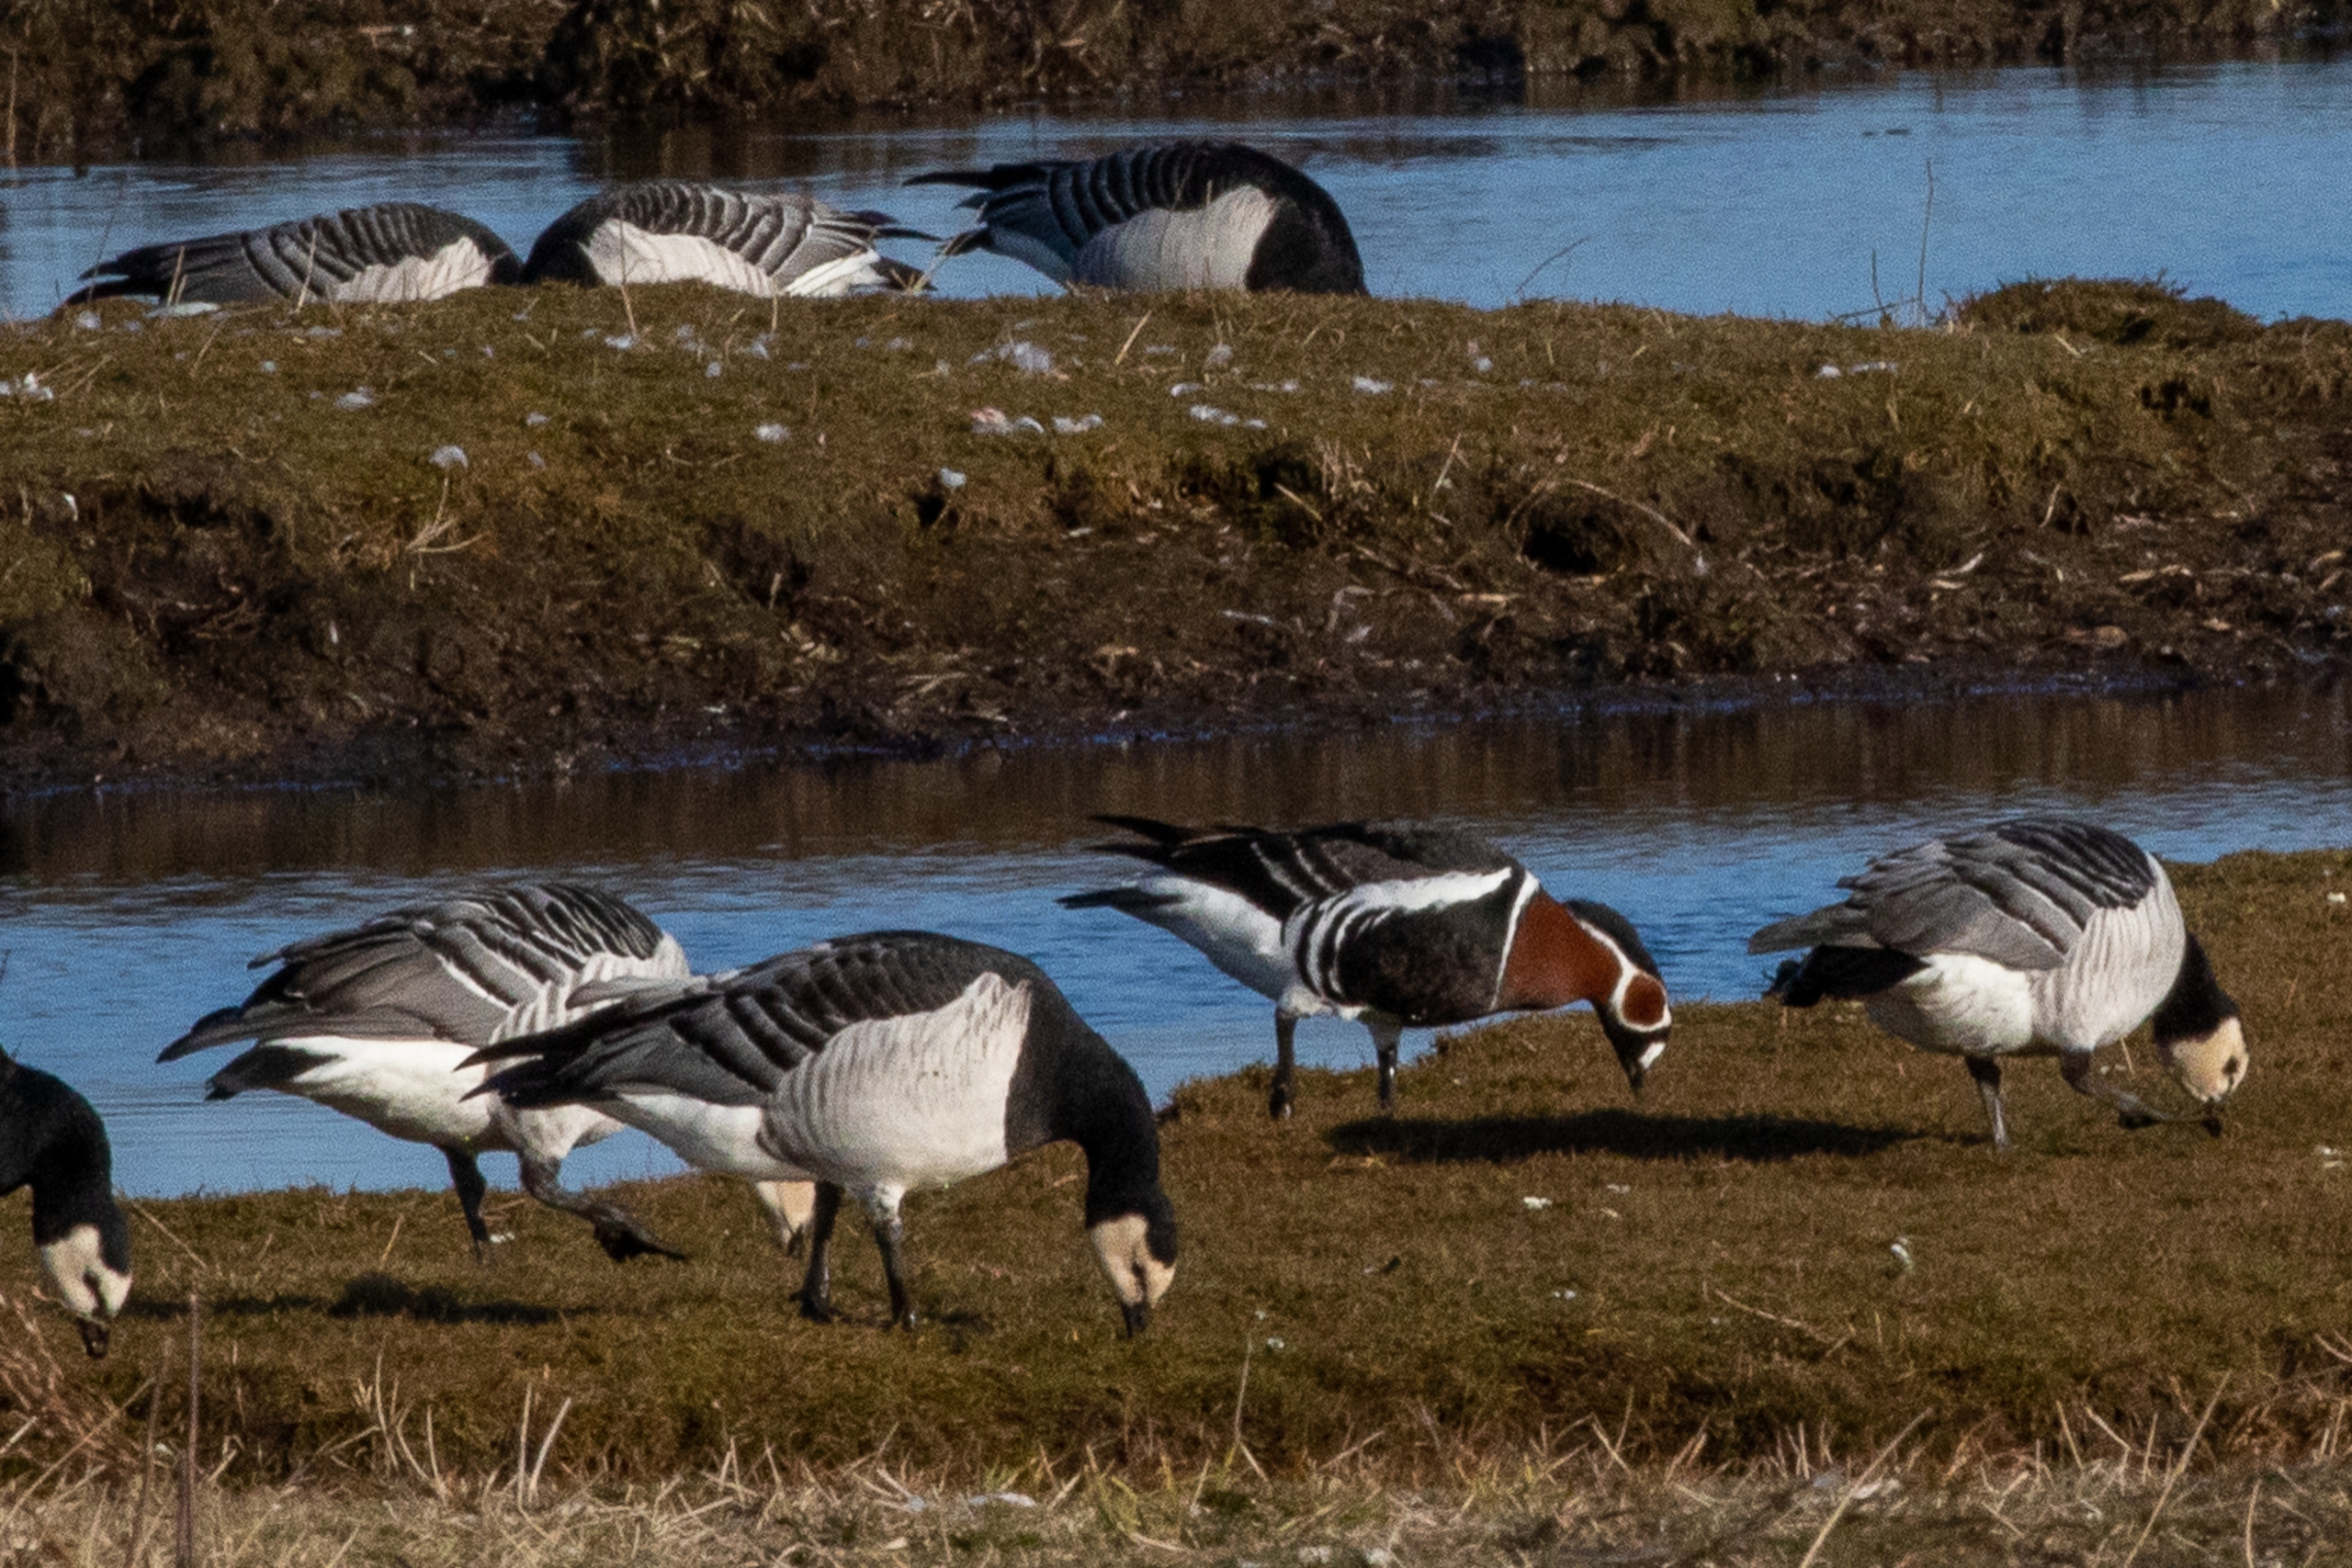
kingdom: Animalia
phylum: Chordata
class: Aves
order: Anseriformes
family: Anatidae
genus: Branta
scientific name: Branta ruficollis
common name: Rødhalset gås
